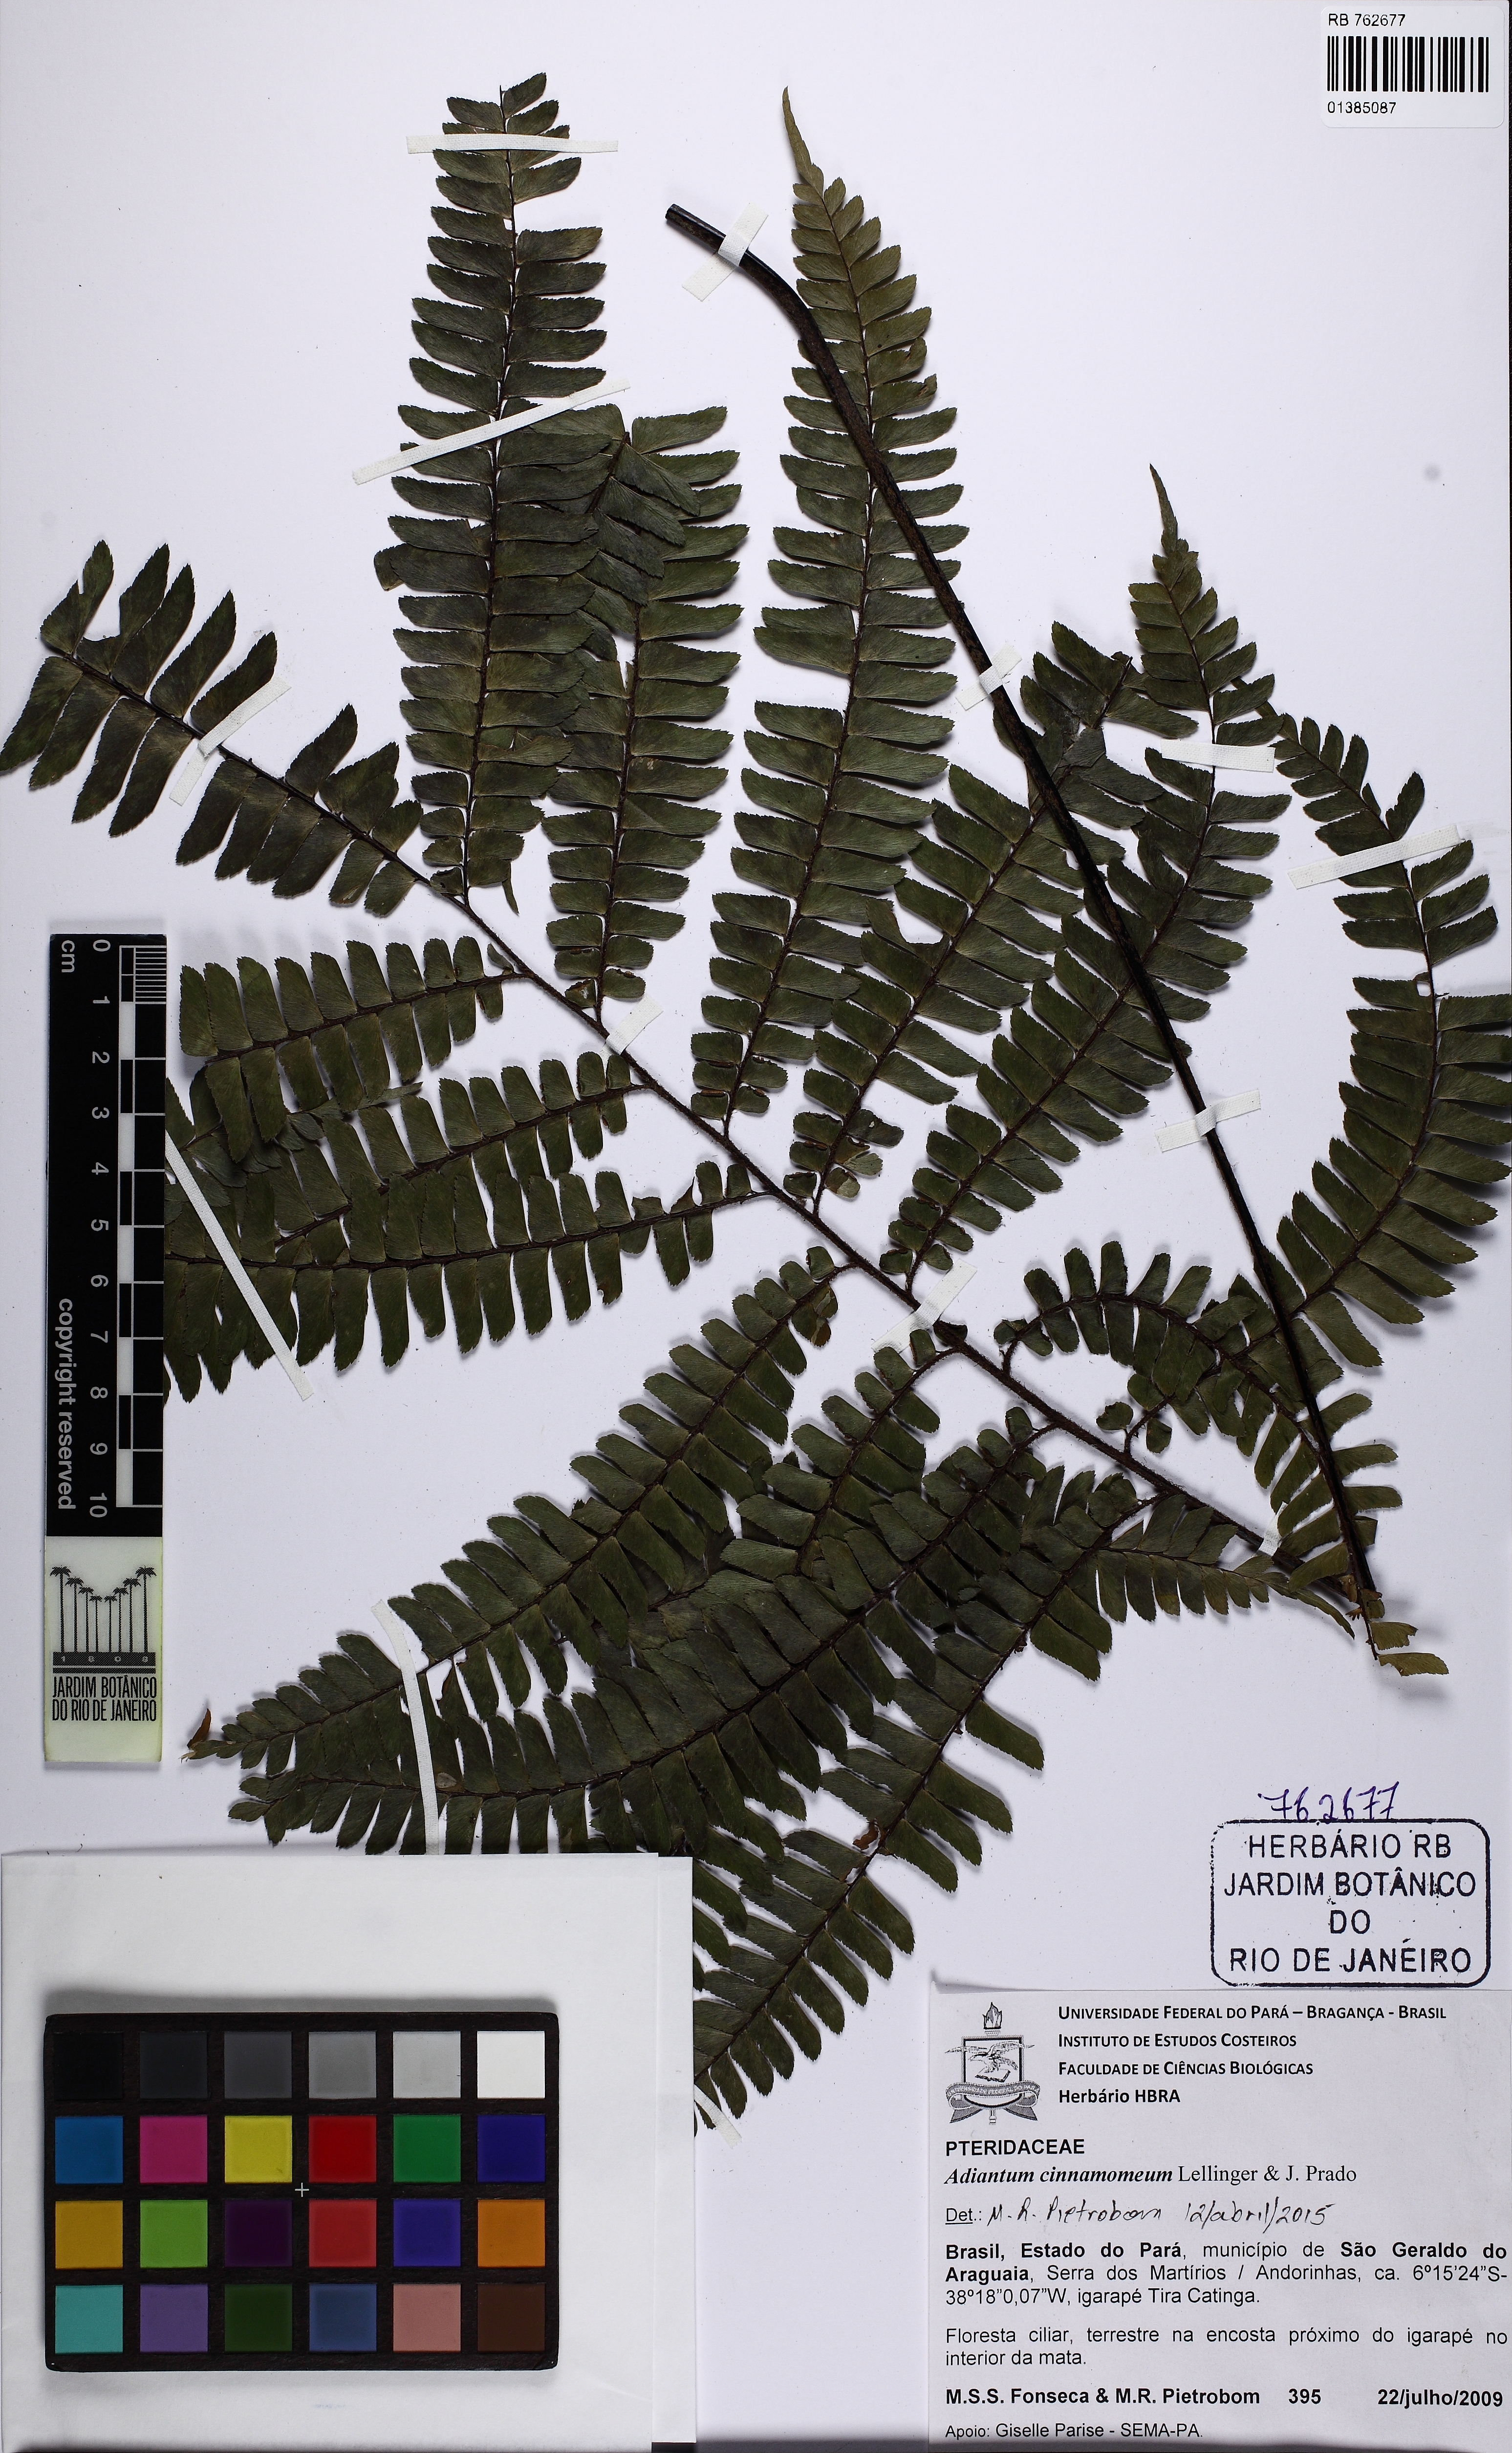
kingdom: Plantae
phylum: Tracheophyta
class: Polypodiopsida
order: Polypodiales
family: Pteridaceae
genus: Adiantum
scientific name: Adiantum cinnamomeum
